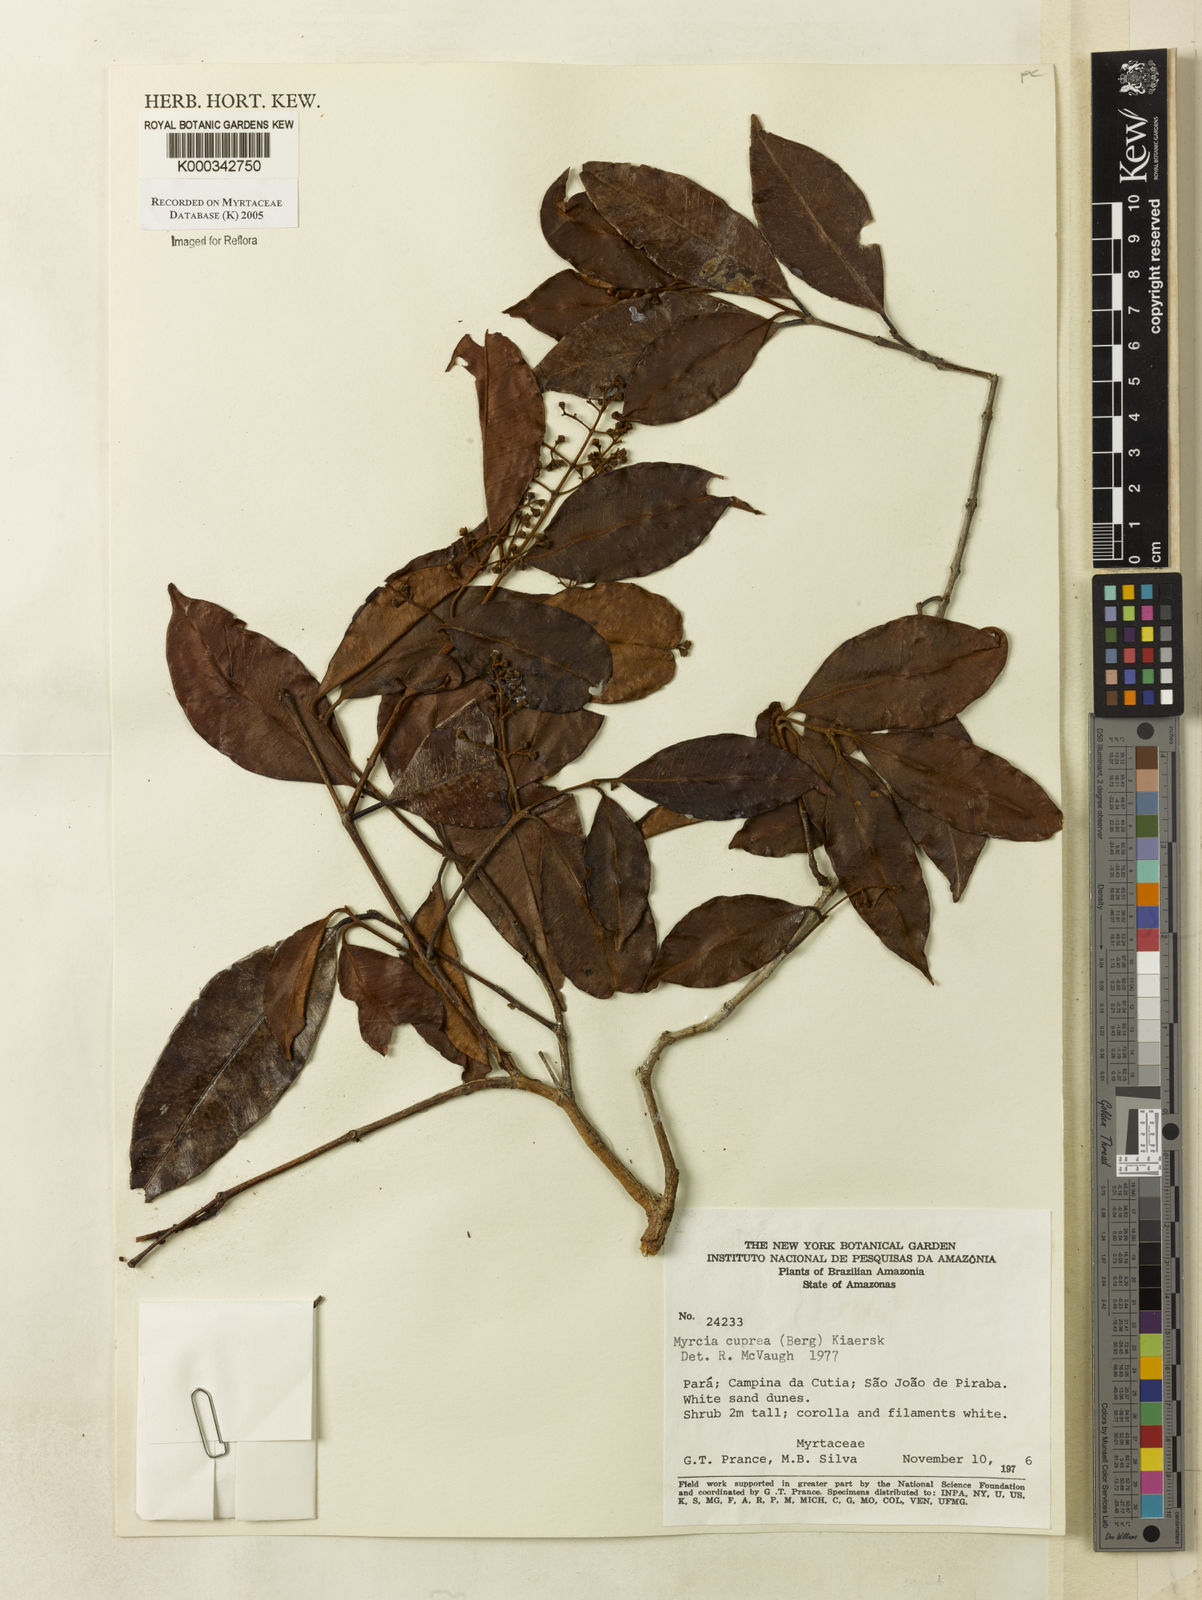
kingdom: Plantae
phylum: Tracheophyta
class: Magnoliopsida
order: Myrtales
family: Myrtaceae
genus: Myrcia
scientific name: Myrcia cuprea
